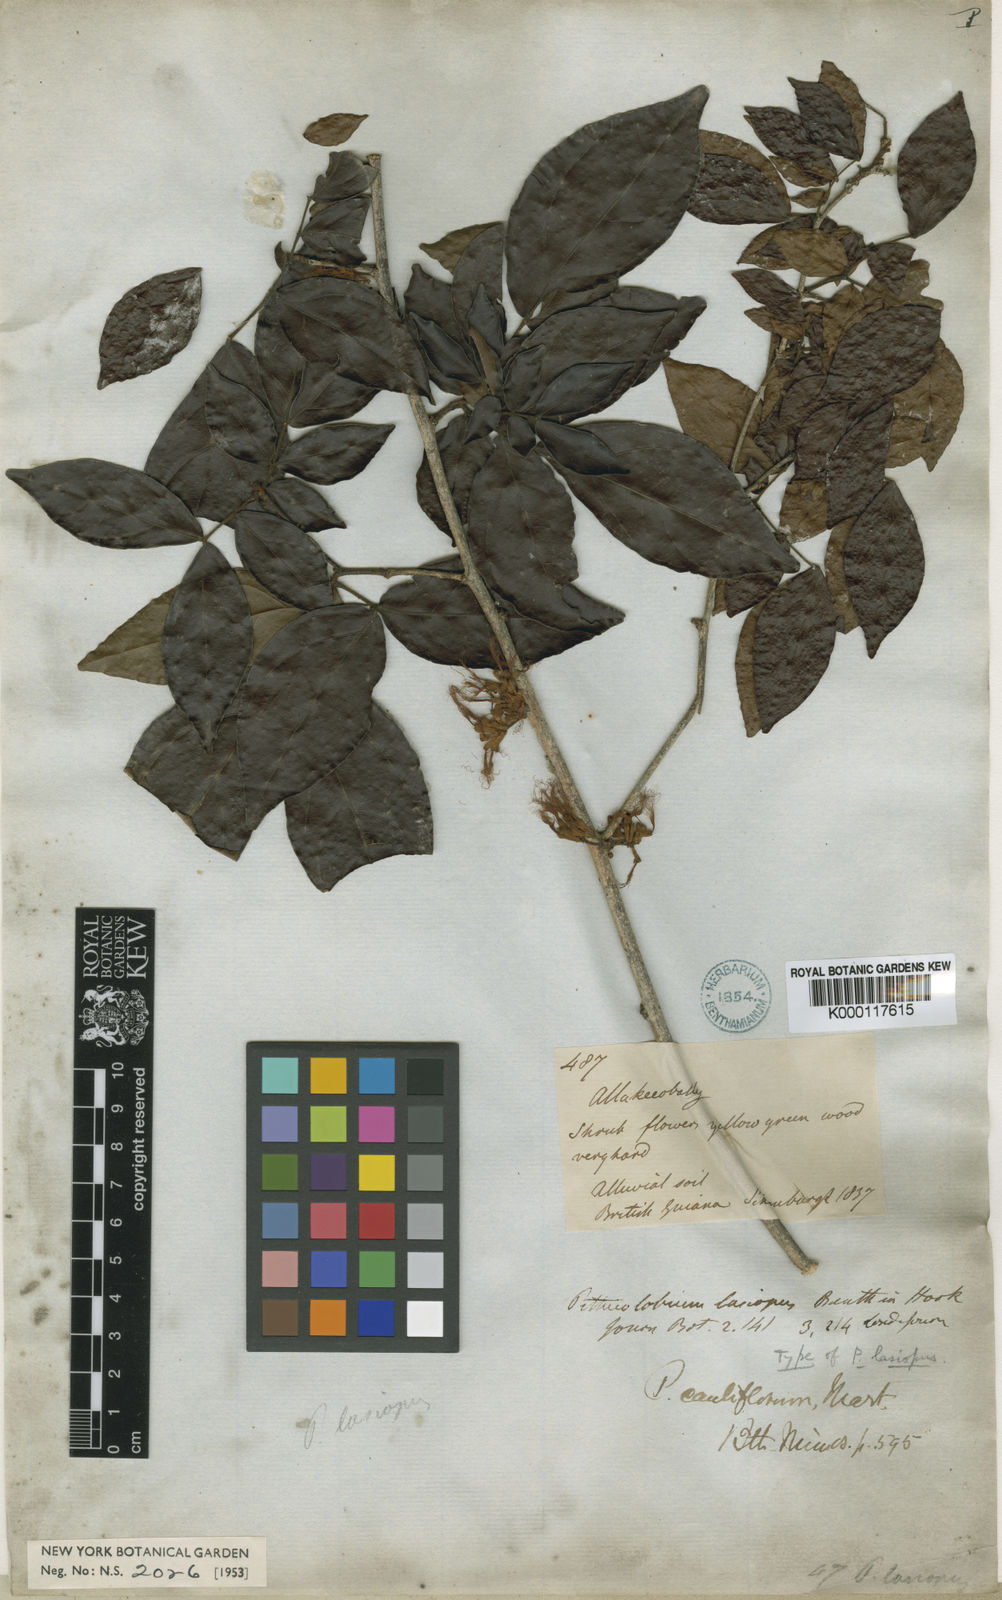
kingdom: Plantae
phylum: Tracheophyta
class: Magnoliopsida
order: Fabales
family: Fabaceae
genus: Zygia
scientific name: Zygia
